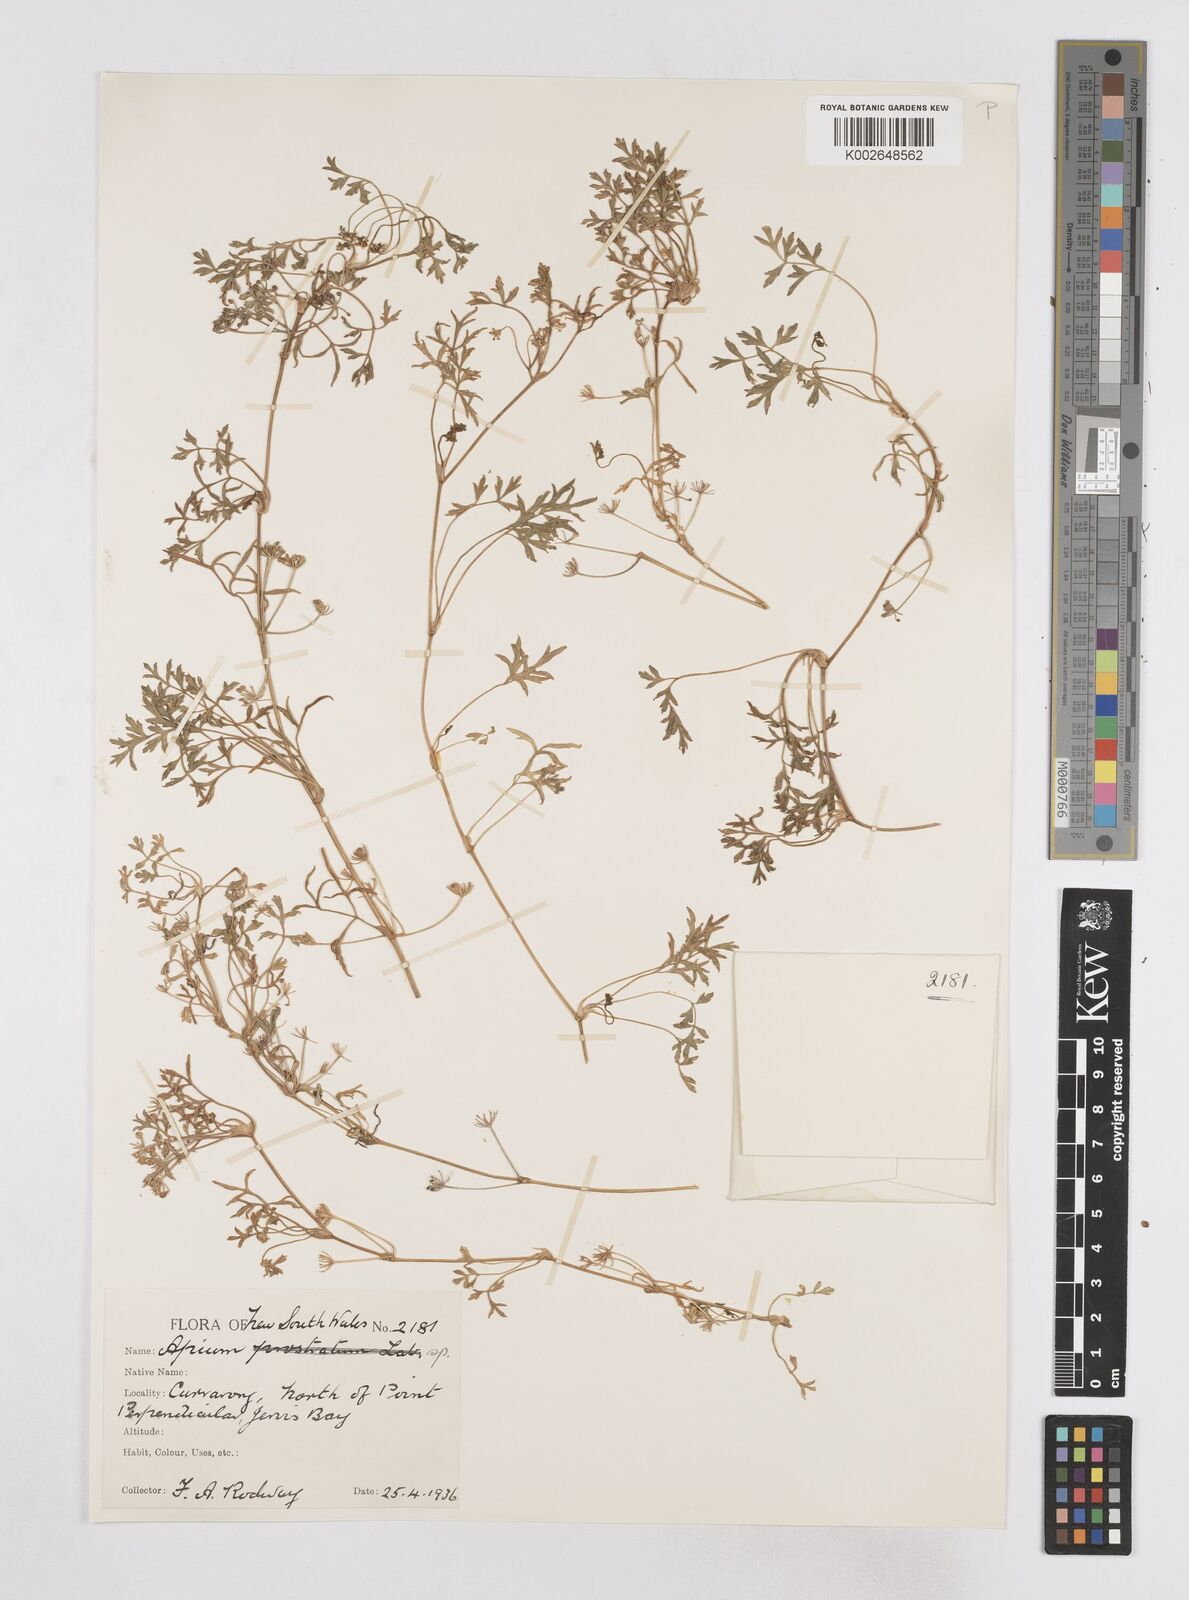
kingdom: Plantae
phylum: Tracheophyta
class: Magnoliopsida
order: Apiales
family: Apiaceae
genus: Apium
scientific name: Apium prostratum
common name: Prostrate marshwort
